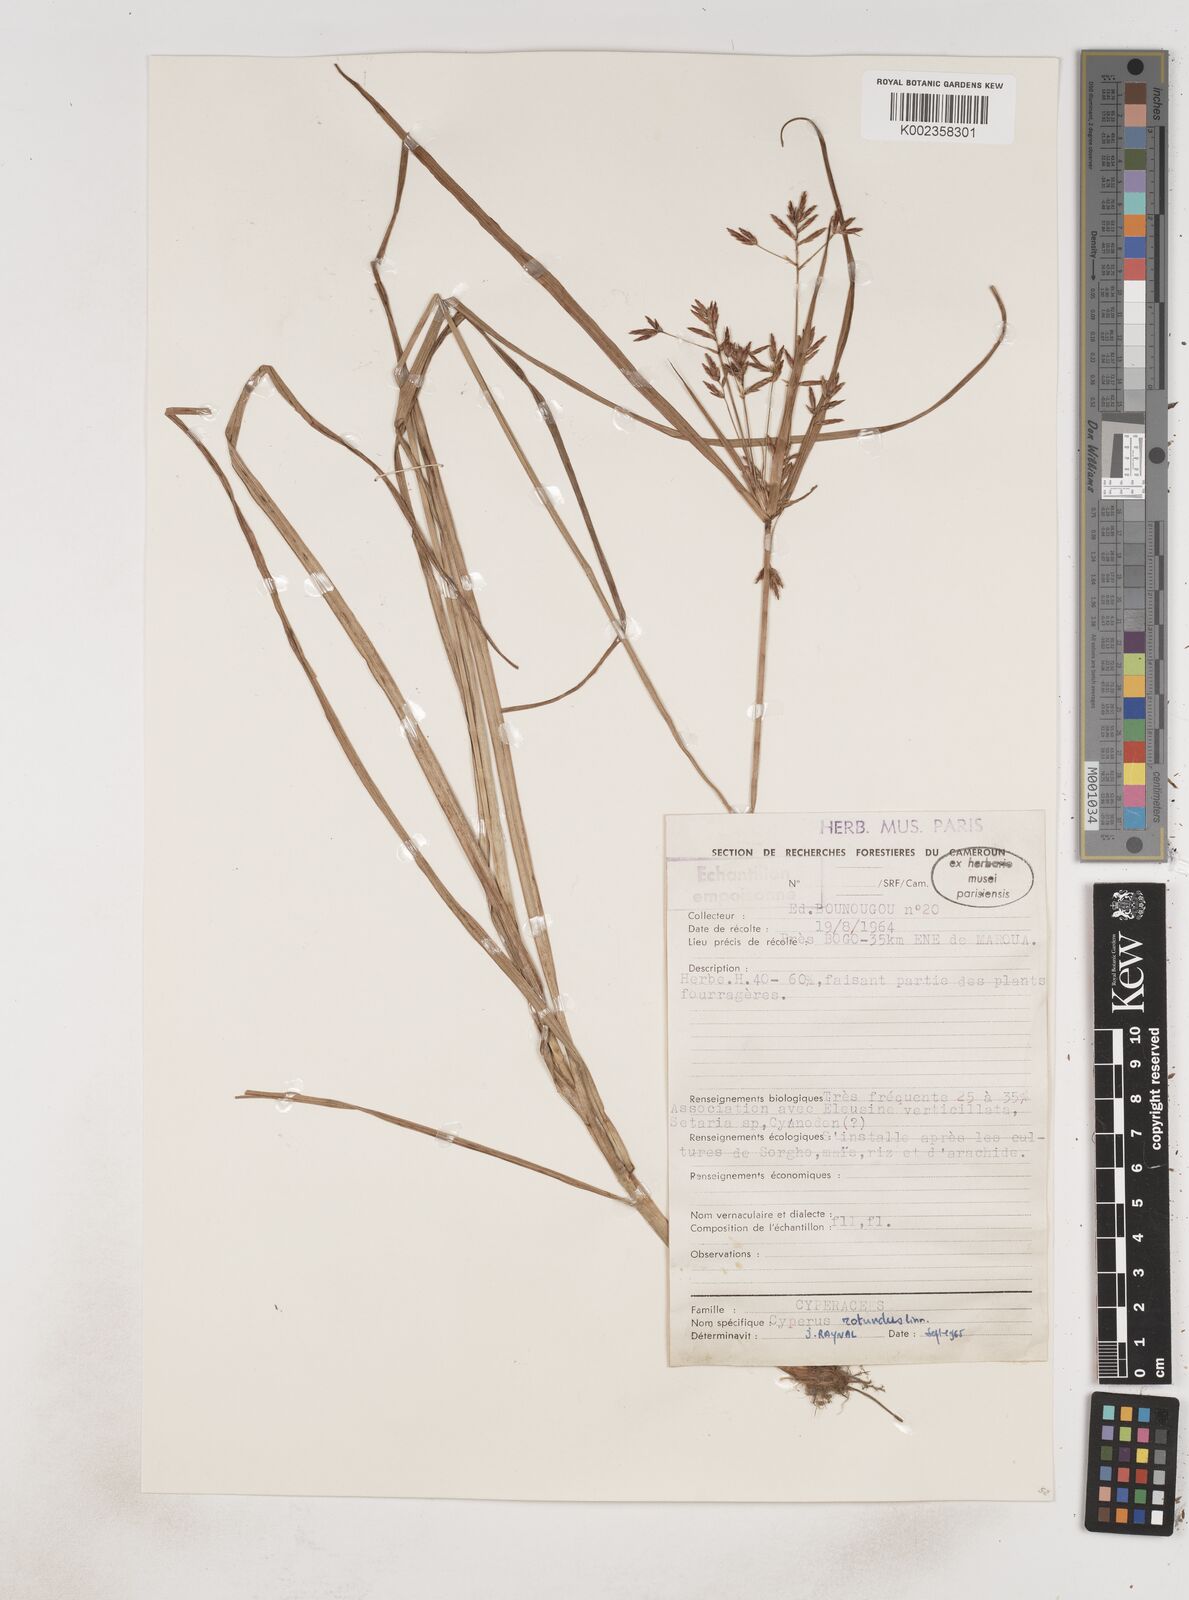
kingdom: Plantae
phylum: Tracheophyta
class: Liliopsida
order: Poales
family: Cyperaceae
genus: Cyperus
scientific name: Cyperus rotundus
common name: Nutgrass
